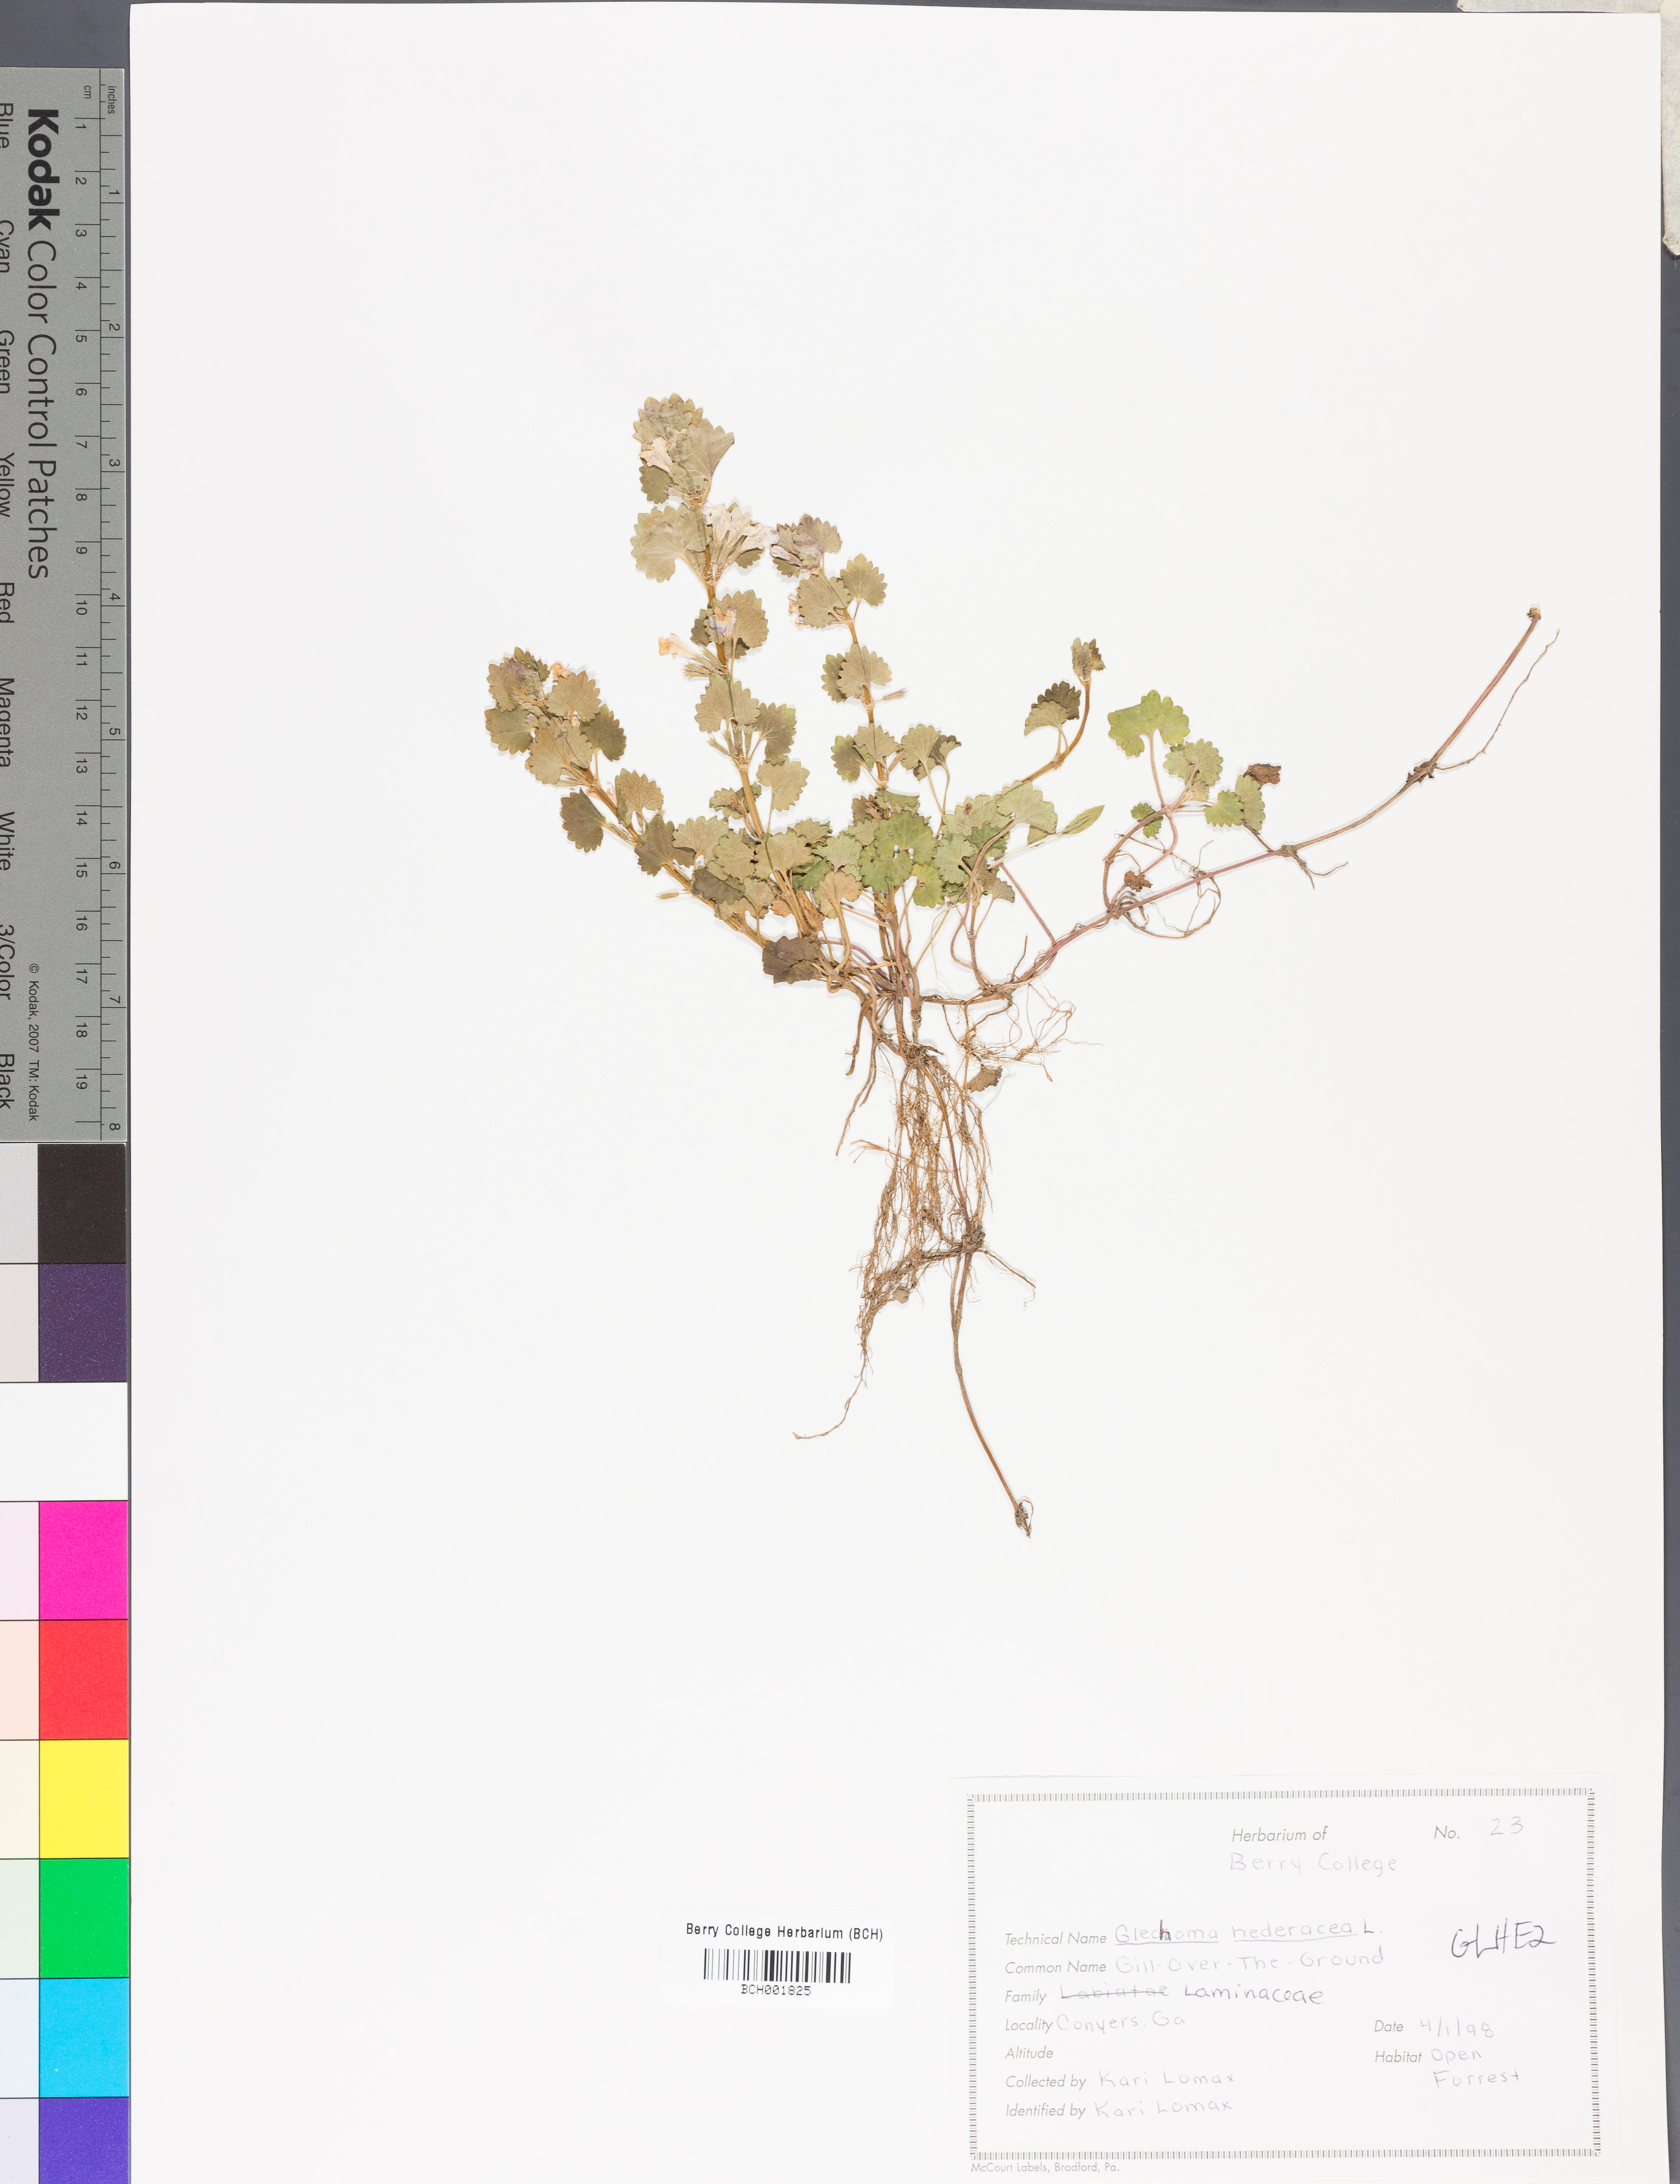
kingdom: Plantae
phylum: Tracheophyta
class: Magnoliopsida
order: Lamiales
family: Lamiaceae
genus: Glechoma
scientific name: Glechoma hederacea
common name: Ground ivy
